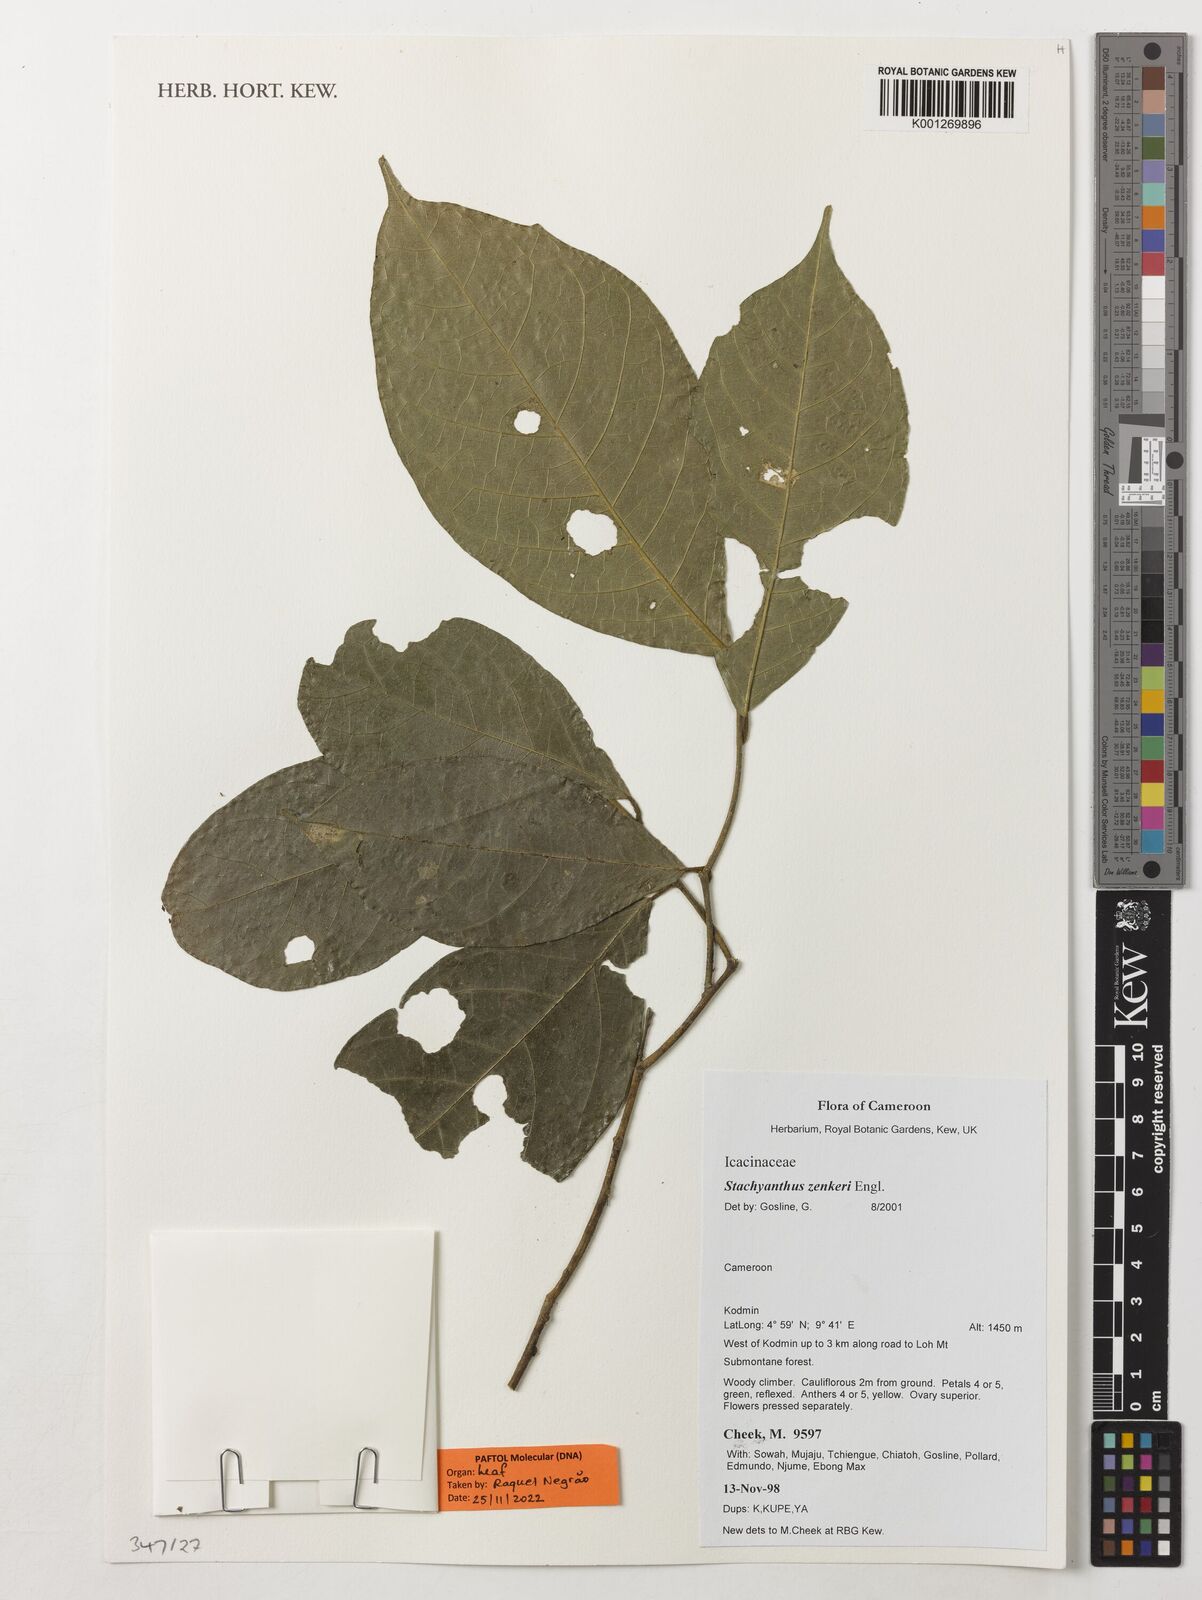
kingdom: Plantae
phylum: Tracheophyta
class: Magnoliopsida
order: Icacinales
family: Icacinaceae
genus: Stachyanthus
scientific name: Stachyanthus zenkeri
